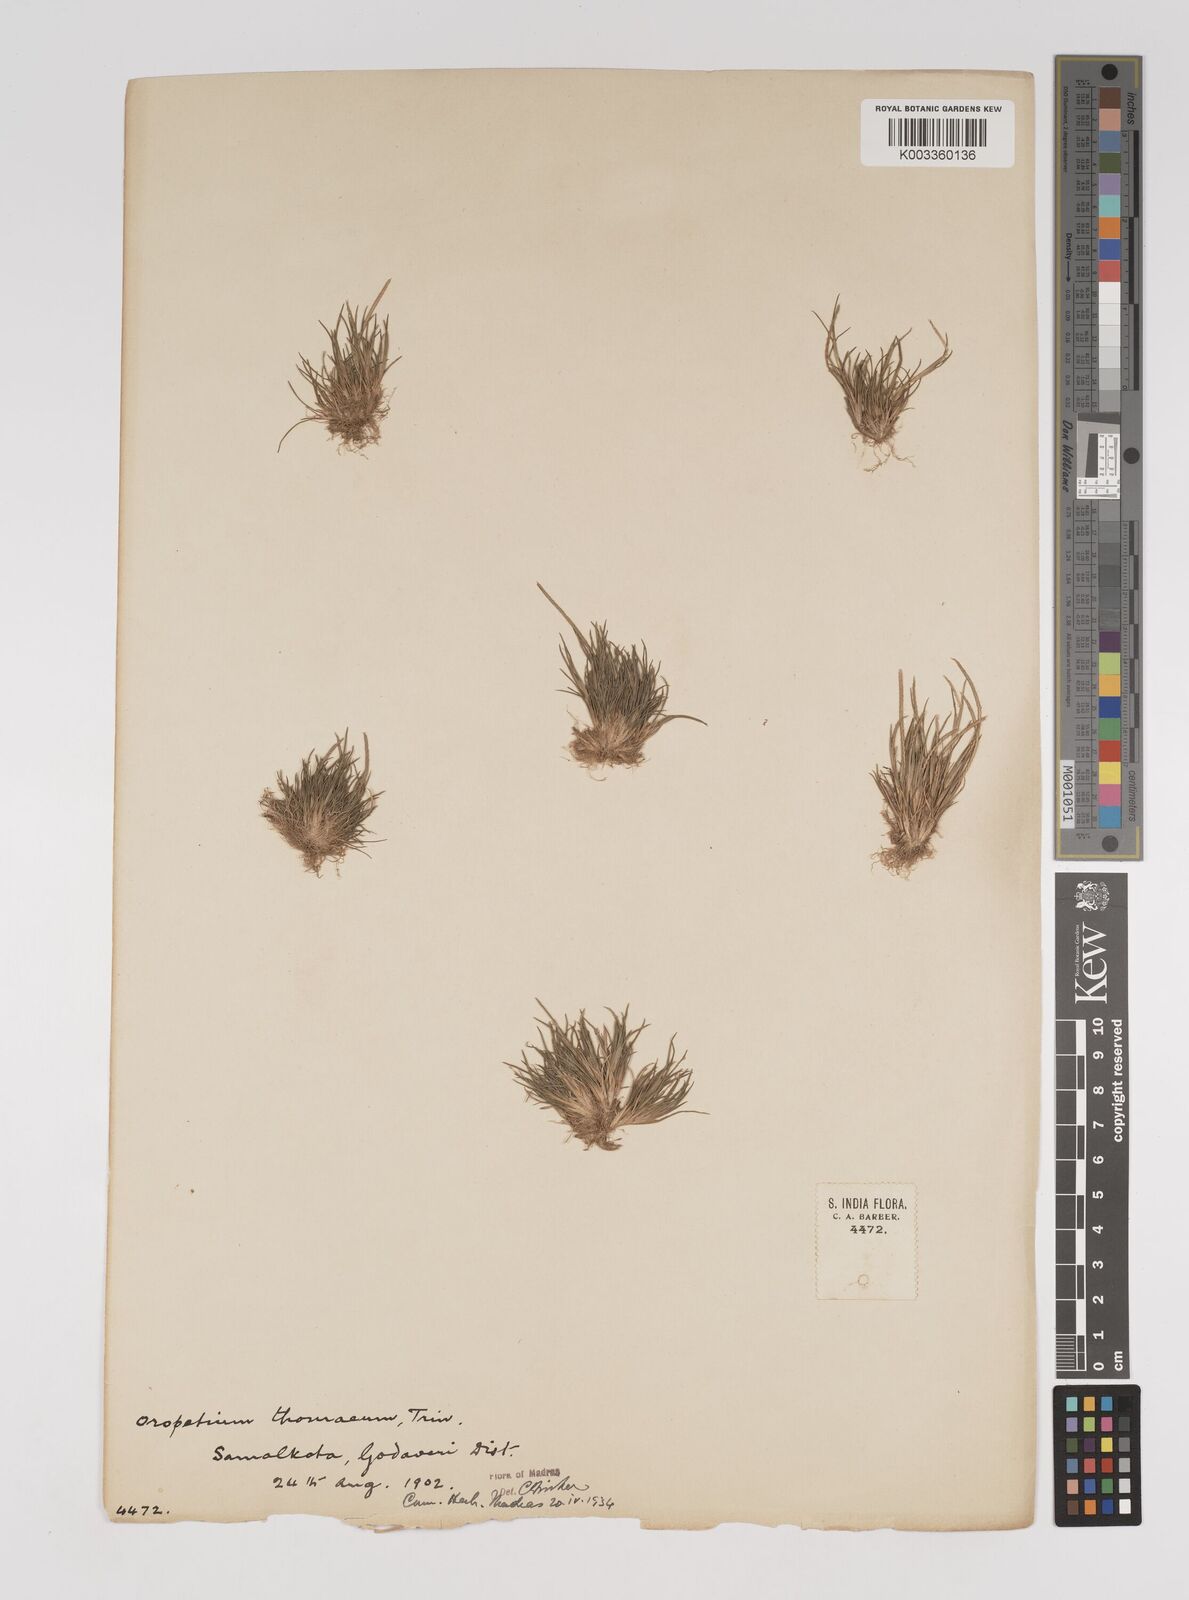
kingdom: Plantae
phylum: Tracheophyta
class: Liliopsida
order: Poales
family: Poaceae
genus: Oropetium
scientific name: Oropetium thomaeum
